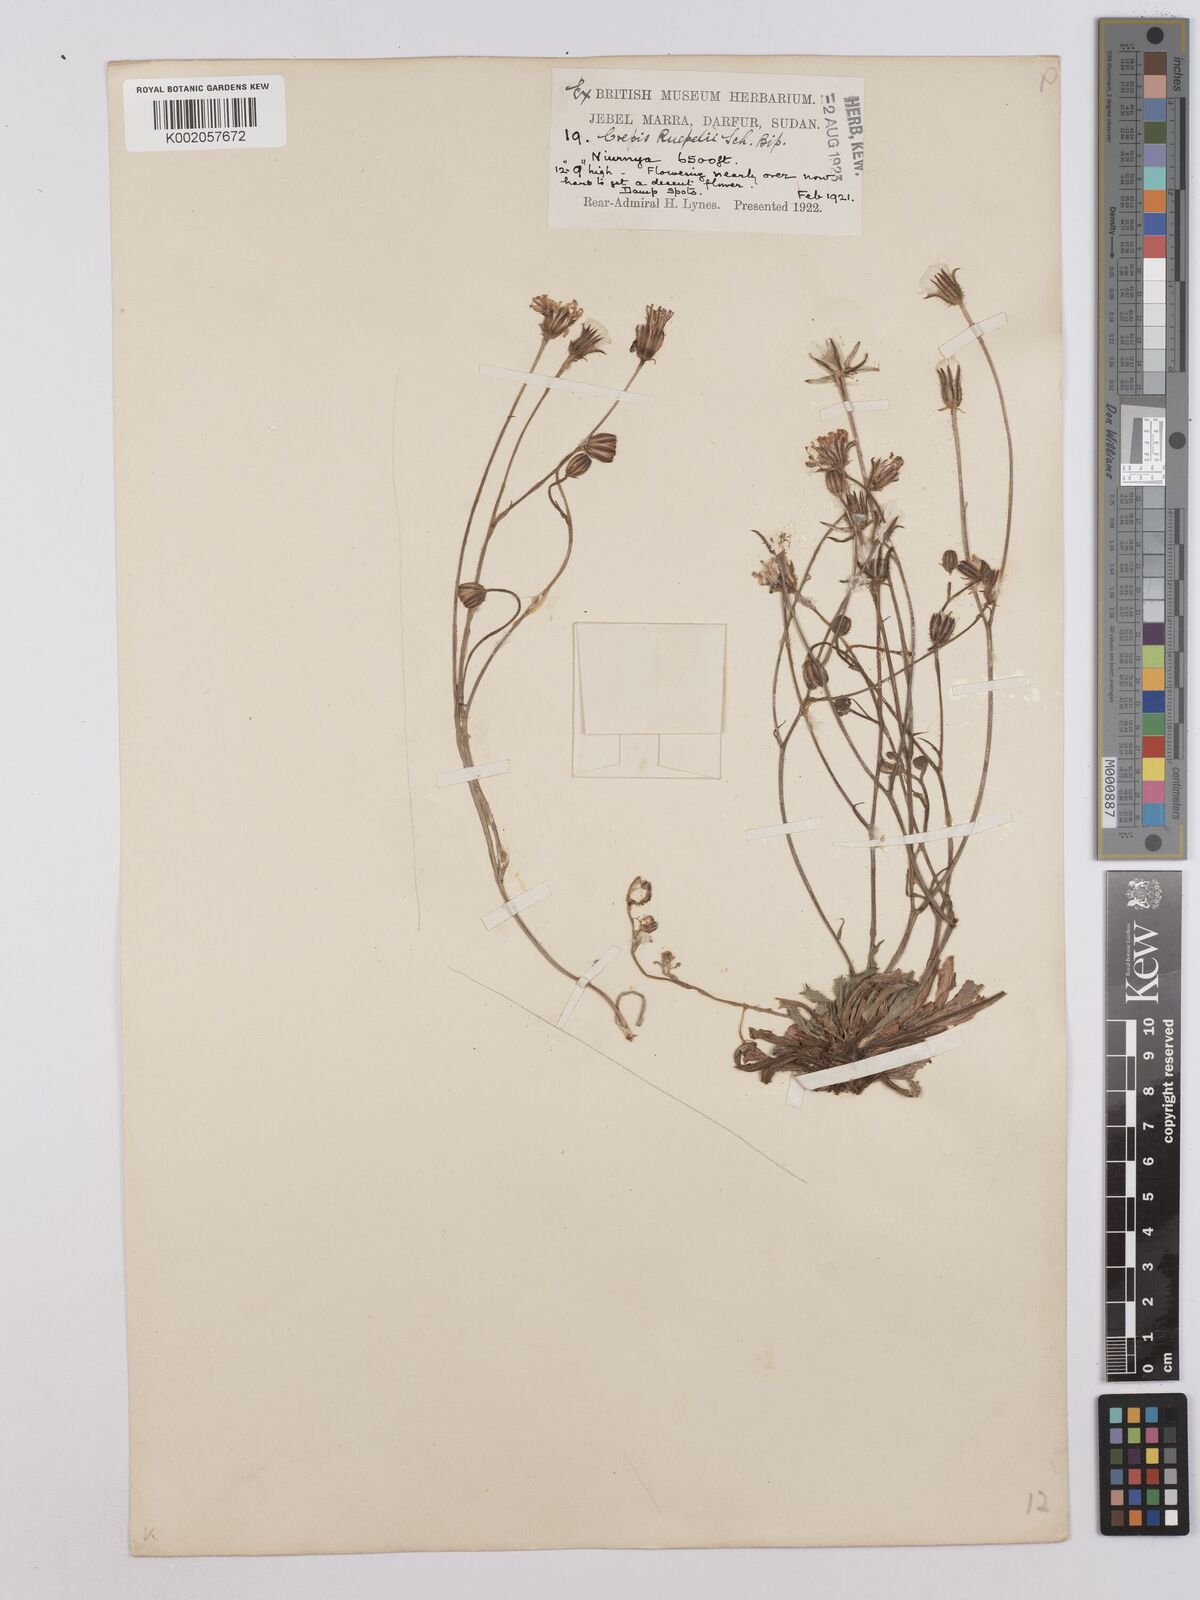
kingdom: Plantae
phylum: Tracheophyta
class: Magnoliopsida
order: Asterales
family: Asteraceae
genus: Crepis
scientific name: Crepis rueppellii
